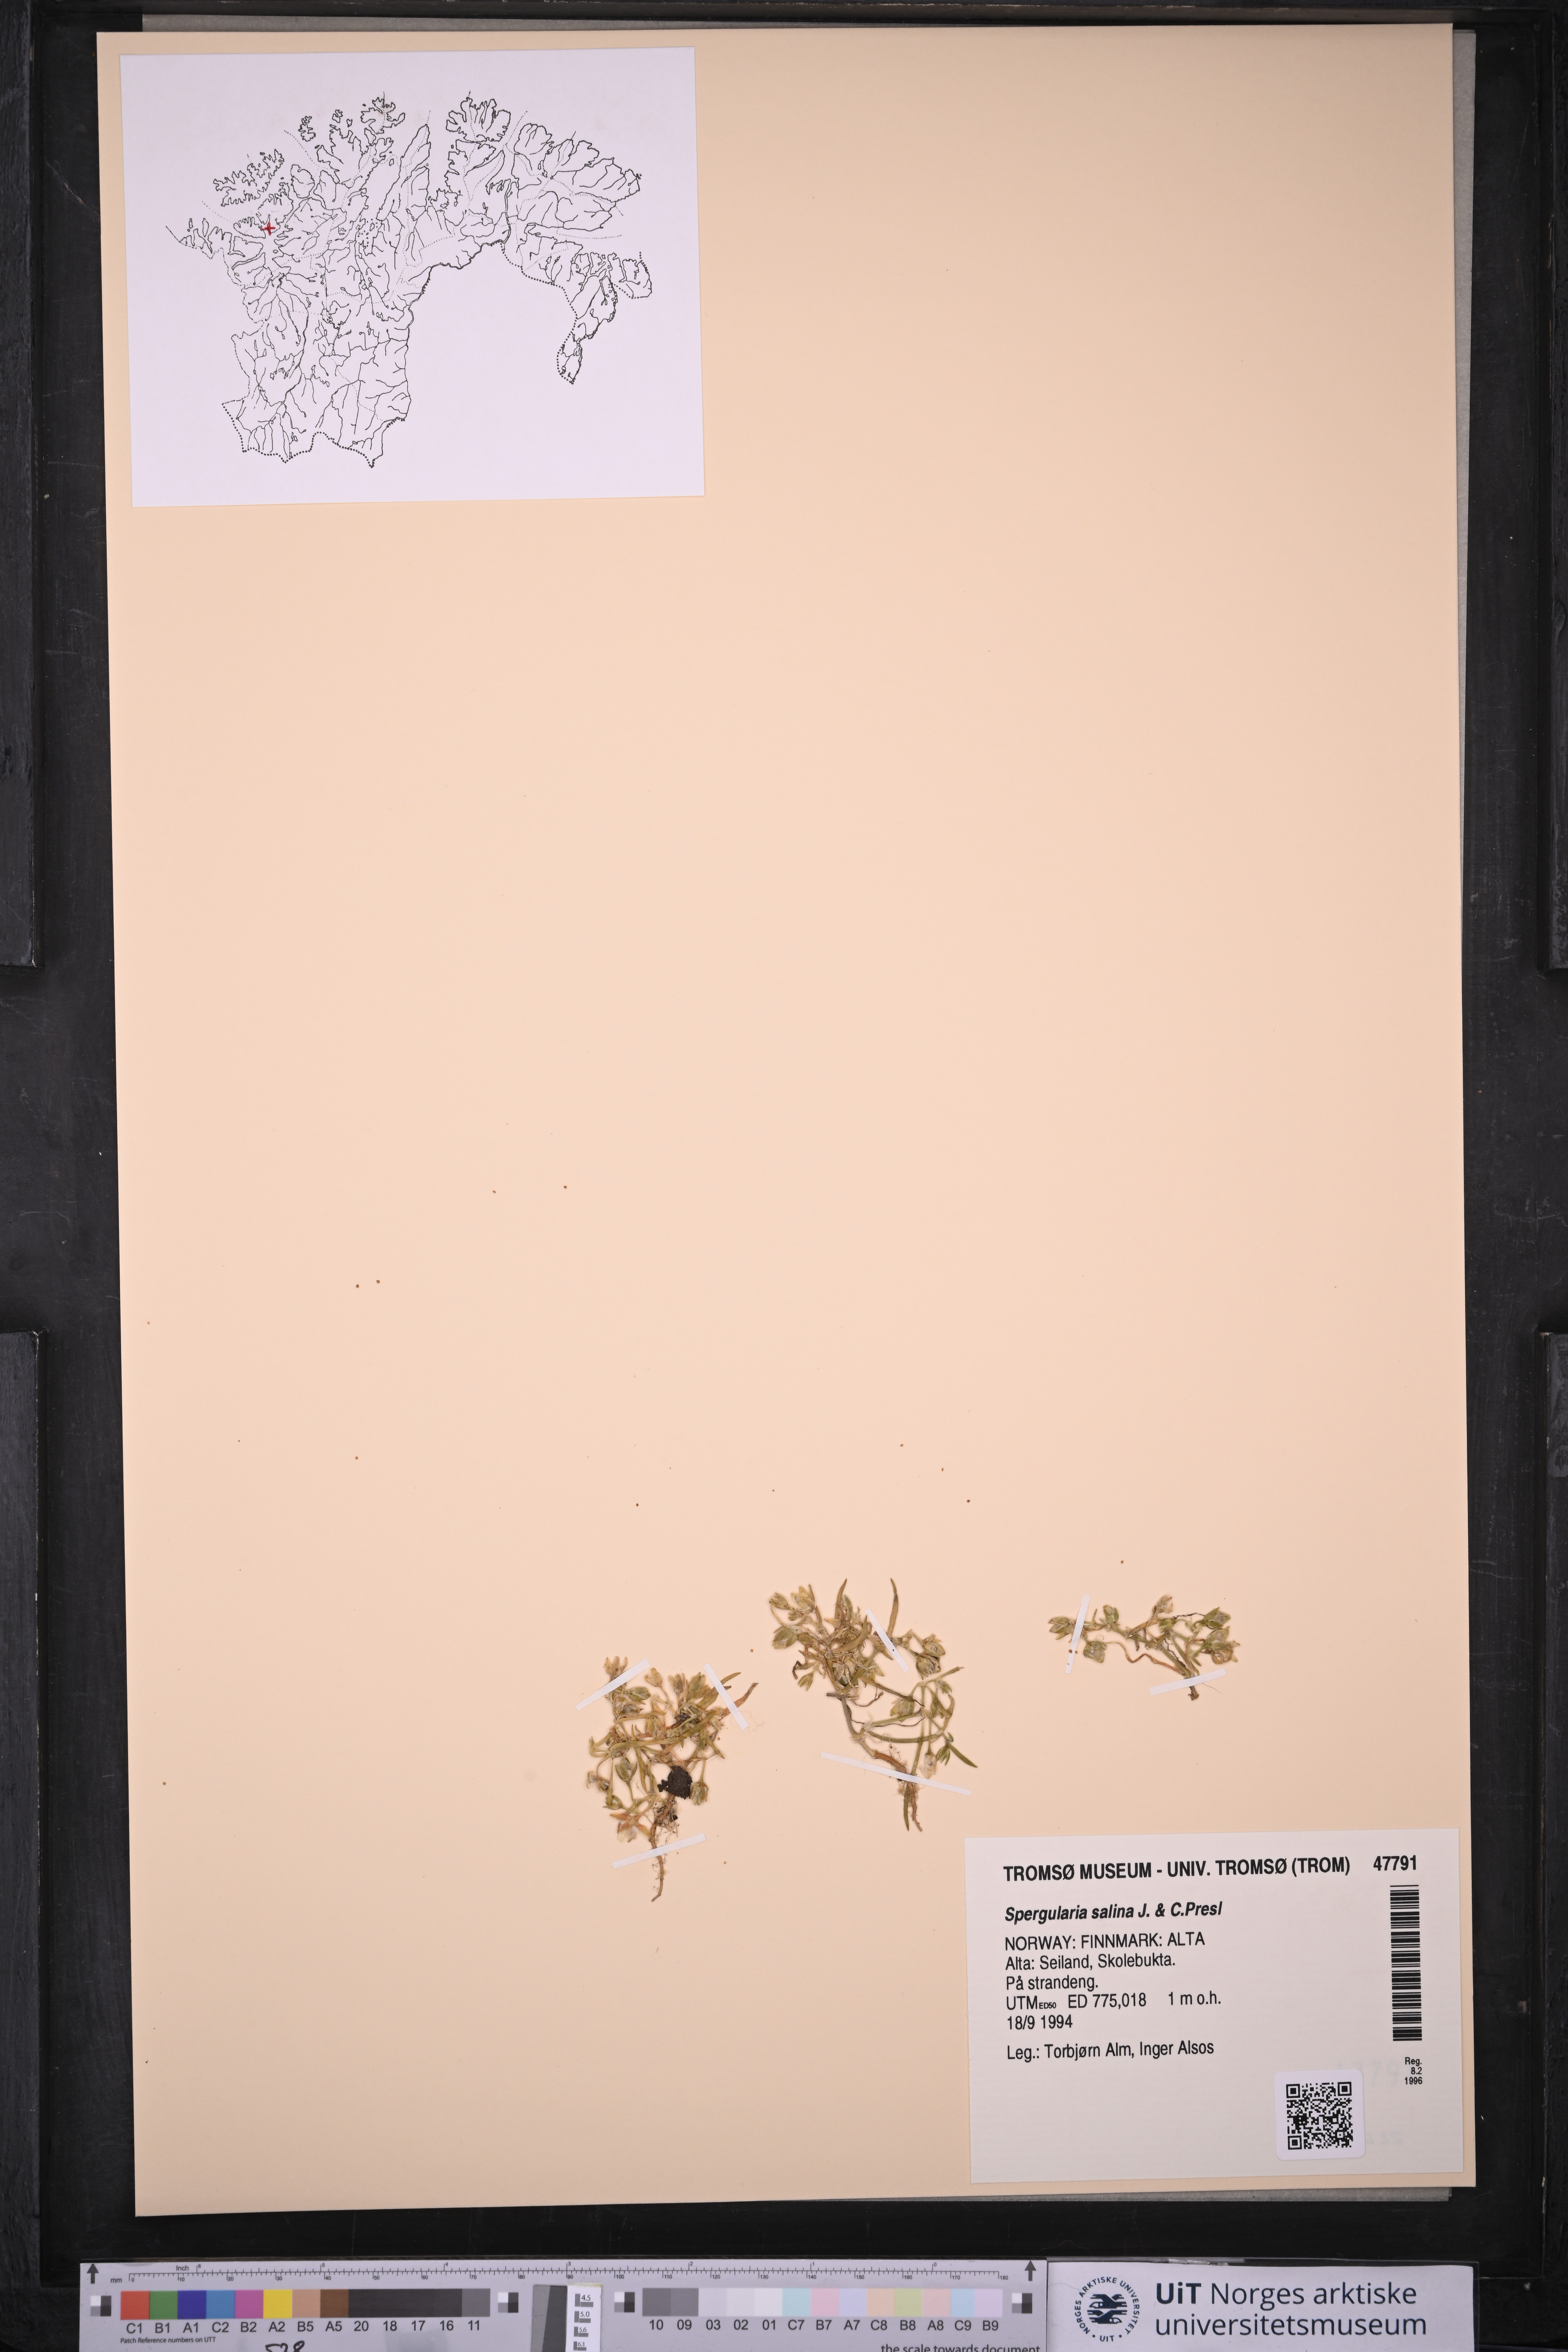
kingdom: Plantae
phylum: Tracheophyta
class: Magnoliopsida
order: Caryophyllales
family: Caryophyllaceae
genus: Spergularia
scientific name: Spergularia marina
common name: Lesser sea-spurrey
